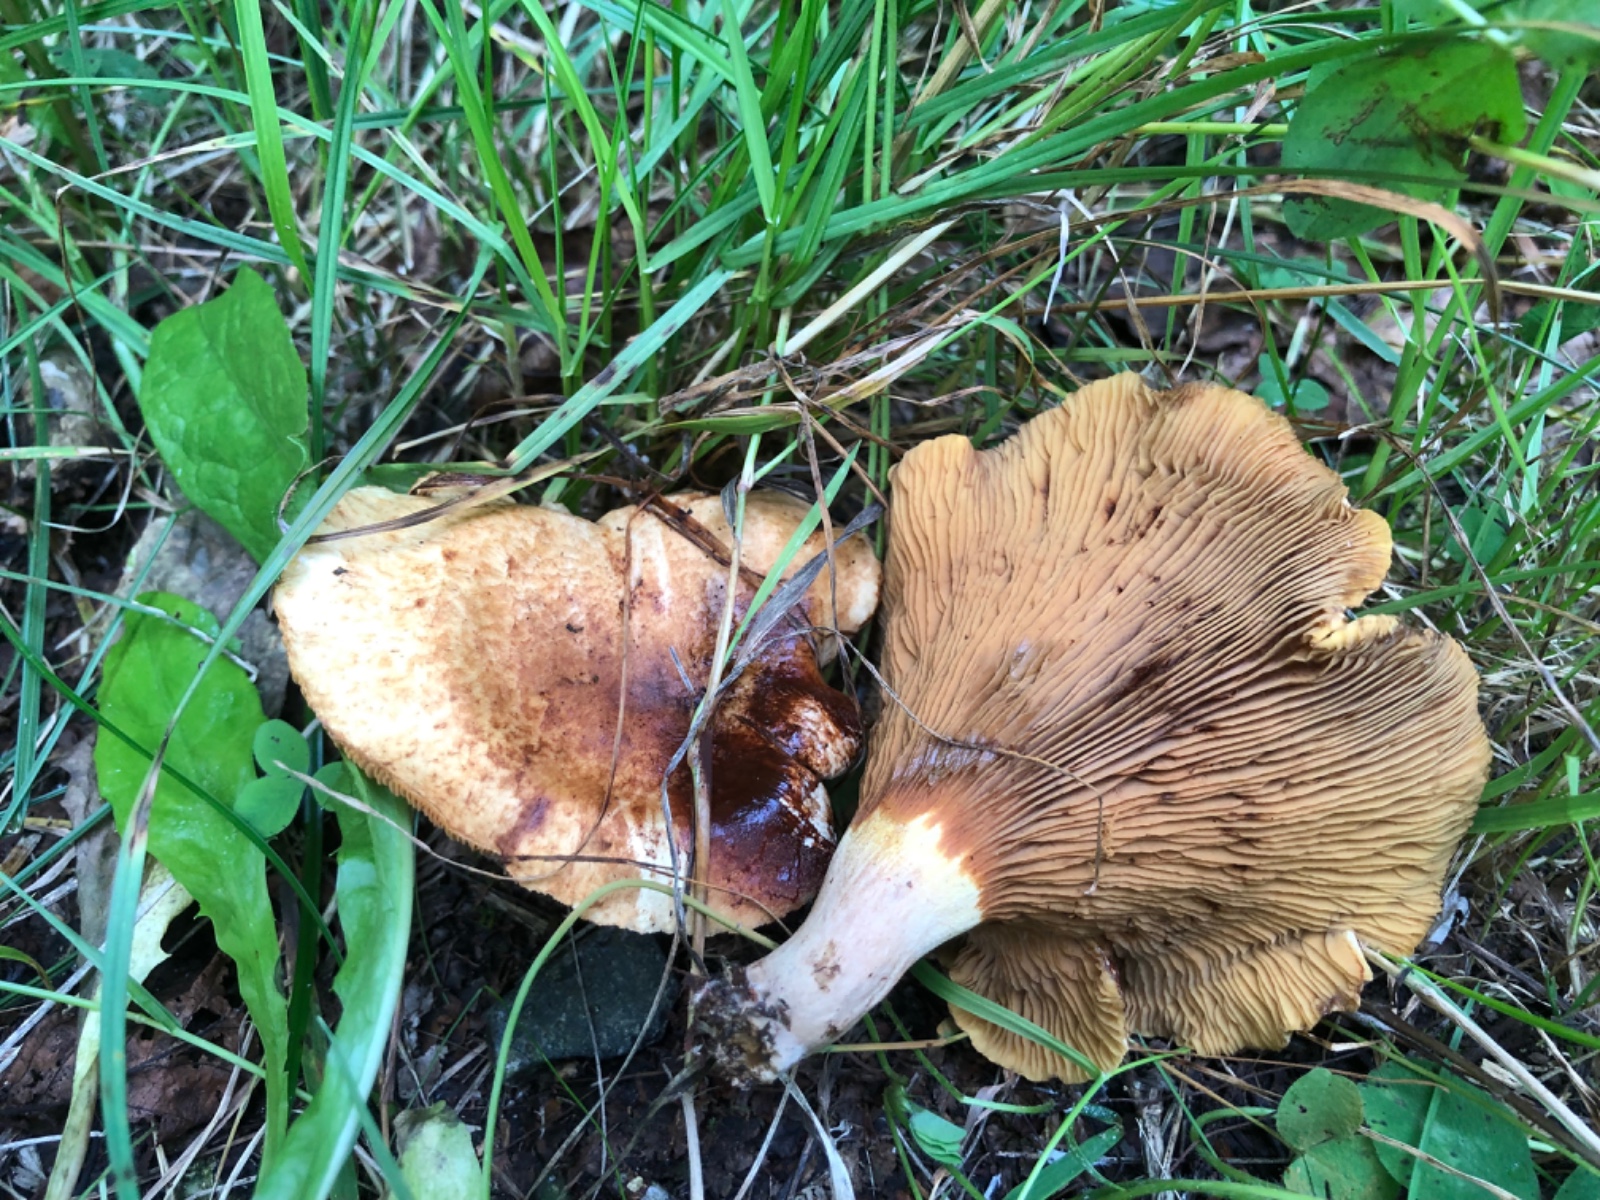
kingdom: Fungi
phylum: Basidiomycota
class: Agaricomycetes
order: Boletales
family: Paxillaceae
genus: Paxillus
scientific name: Paxillus involutus
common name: almindelig netbladhat
